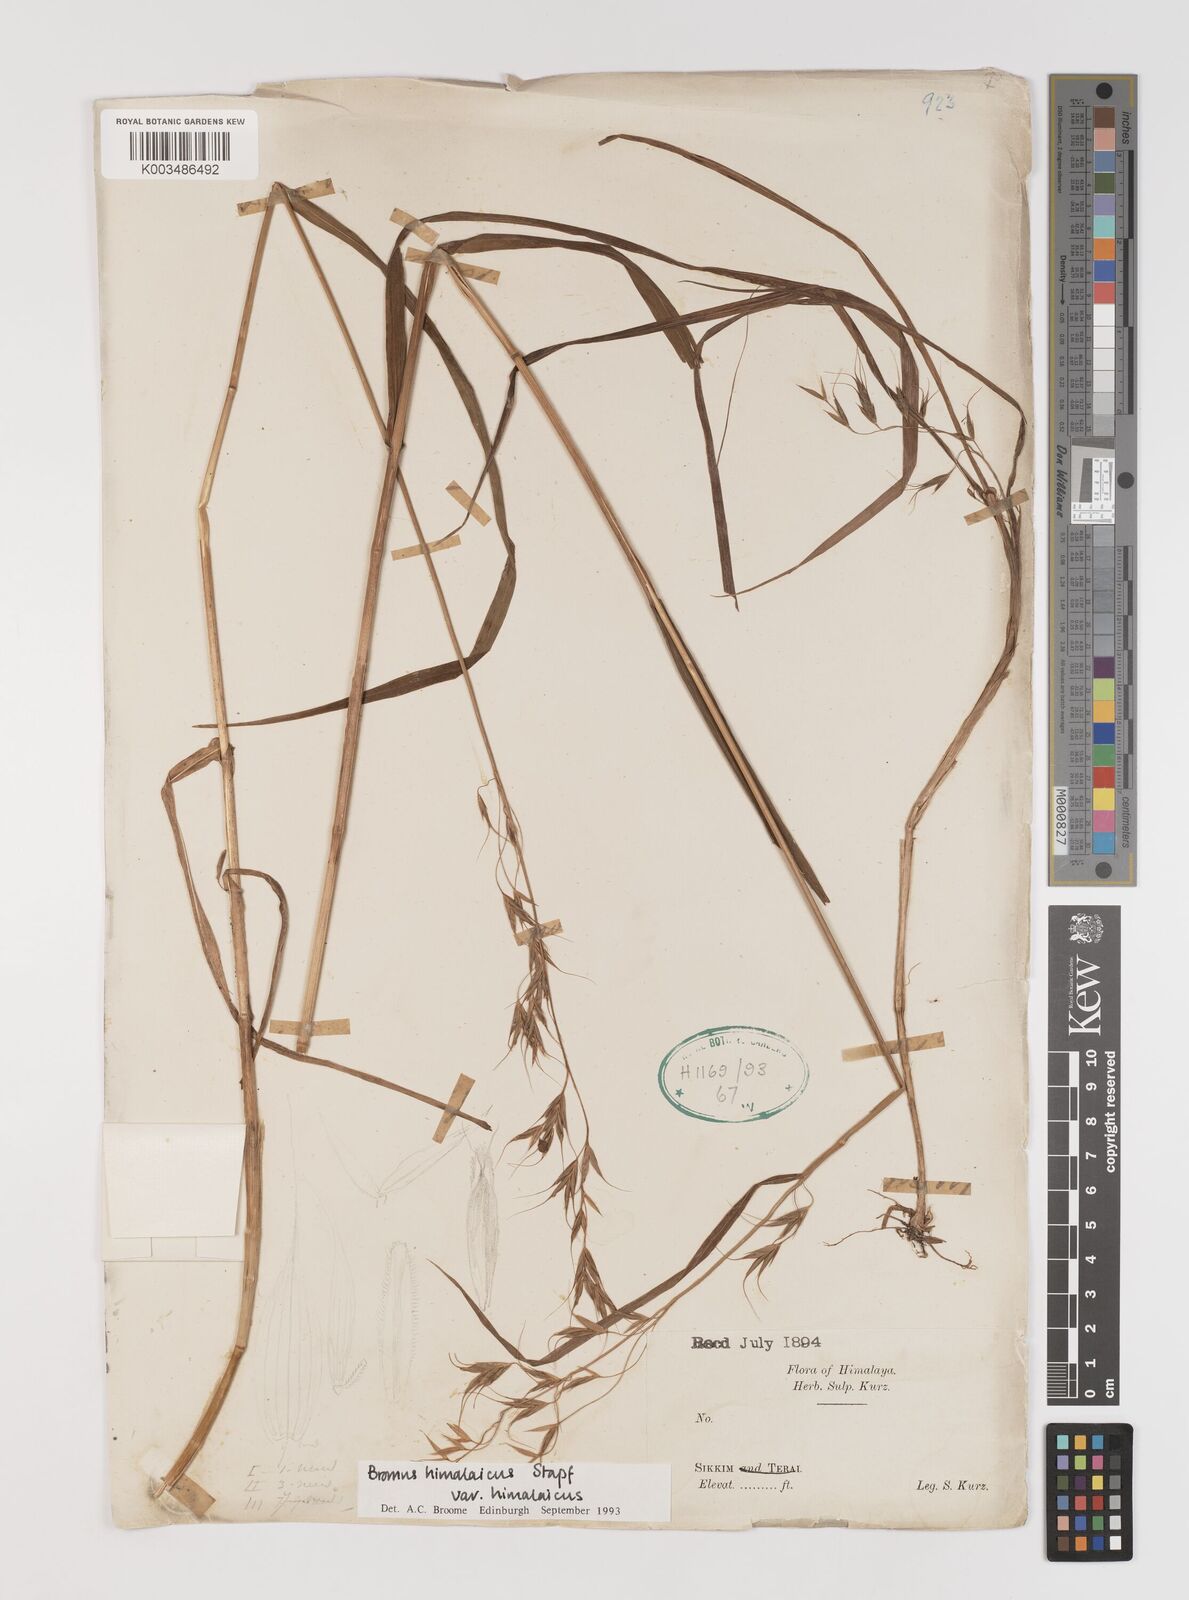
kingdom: Plantae
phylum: Tracheophyta
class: Liliopsida
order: Poales
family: Poaceae
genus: Bromus
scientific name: Bromus himalaicus
